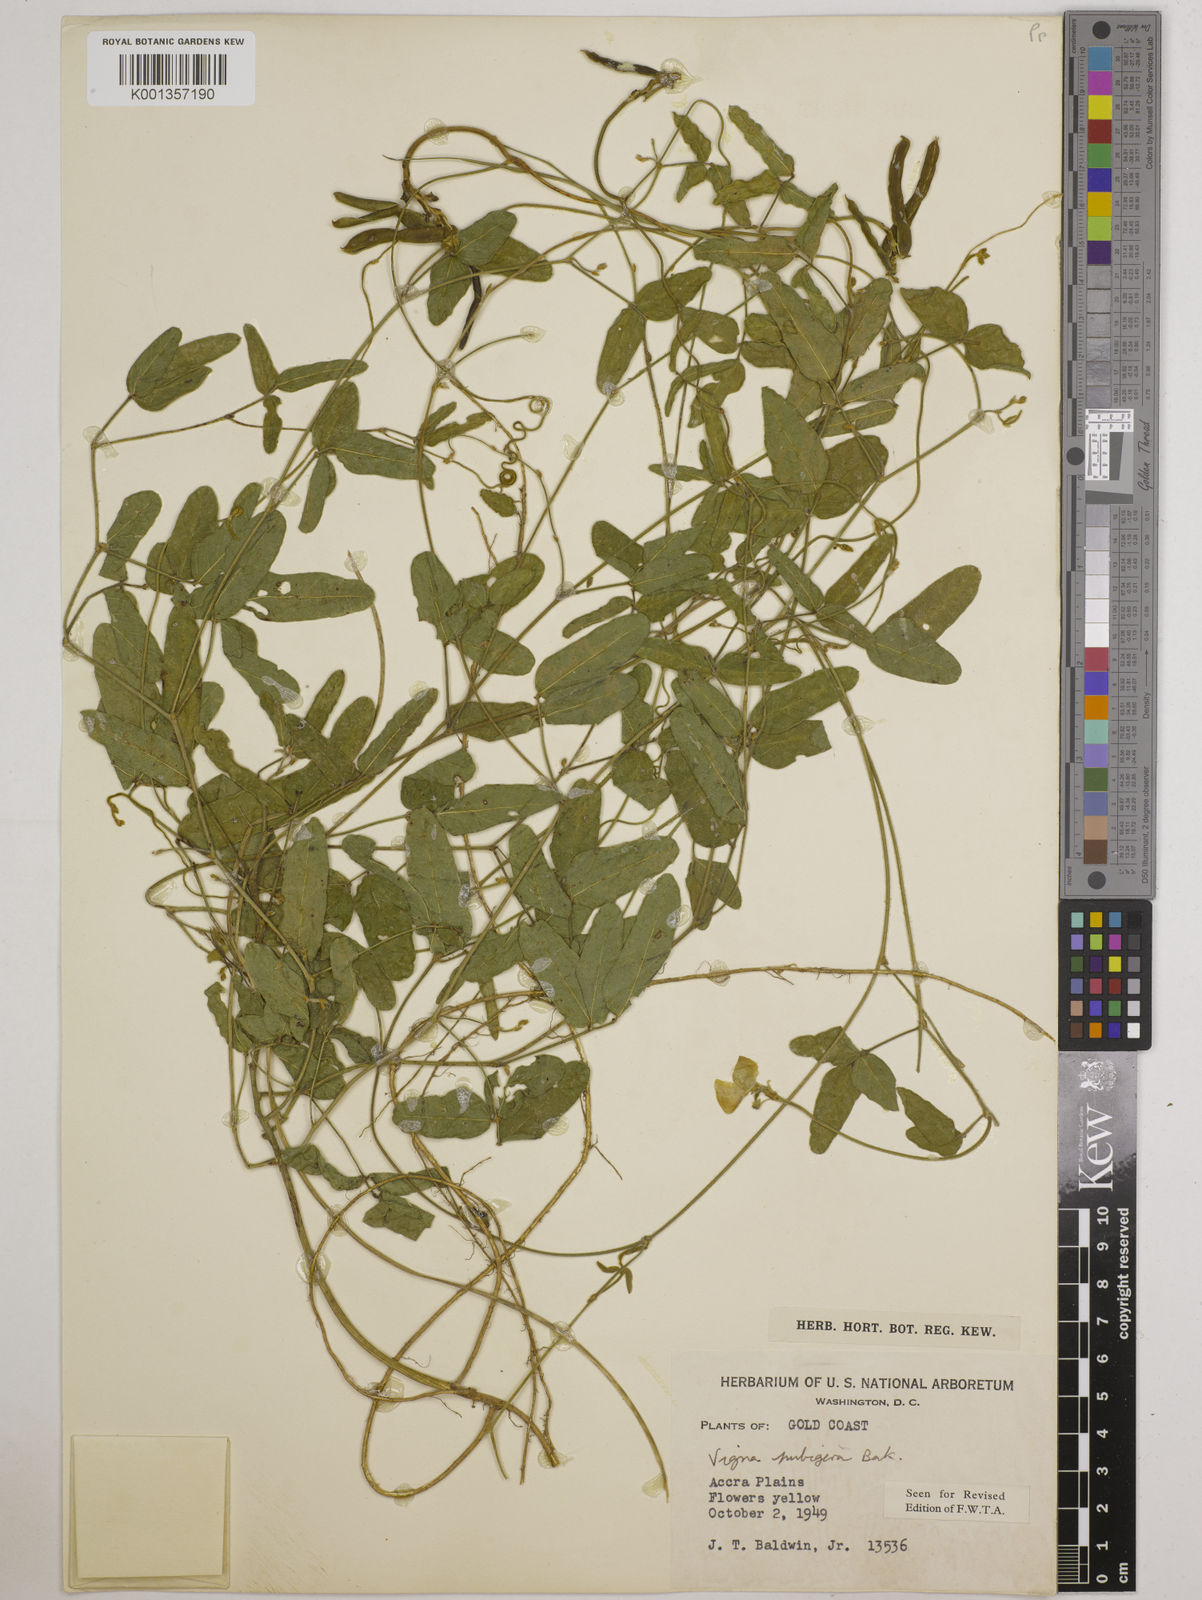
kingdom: Plantae
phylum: Tracheophyta
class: Magnoliopsida
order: Fabales
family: Fabaceae
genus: Vigna
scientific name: Vigna ambacensis
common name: Tsarkiyan zomo
